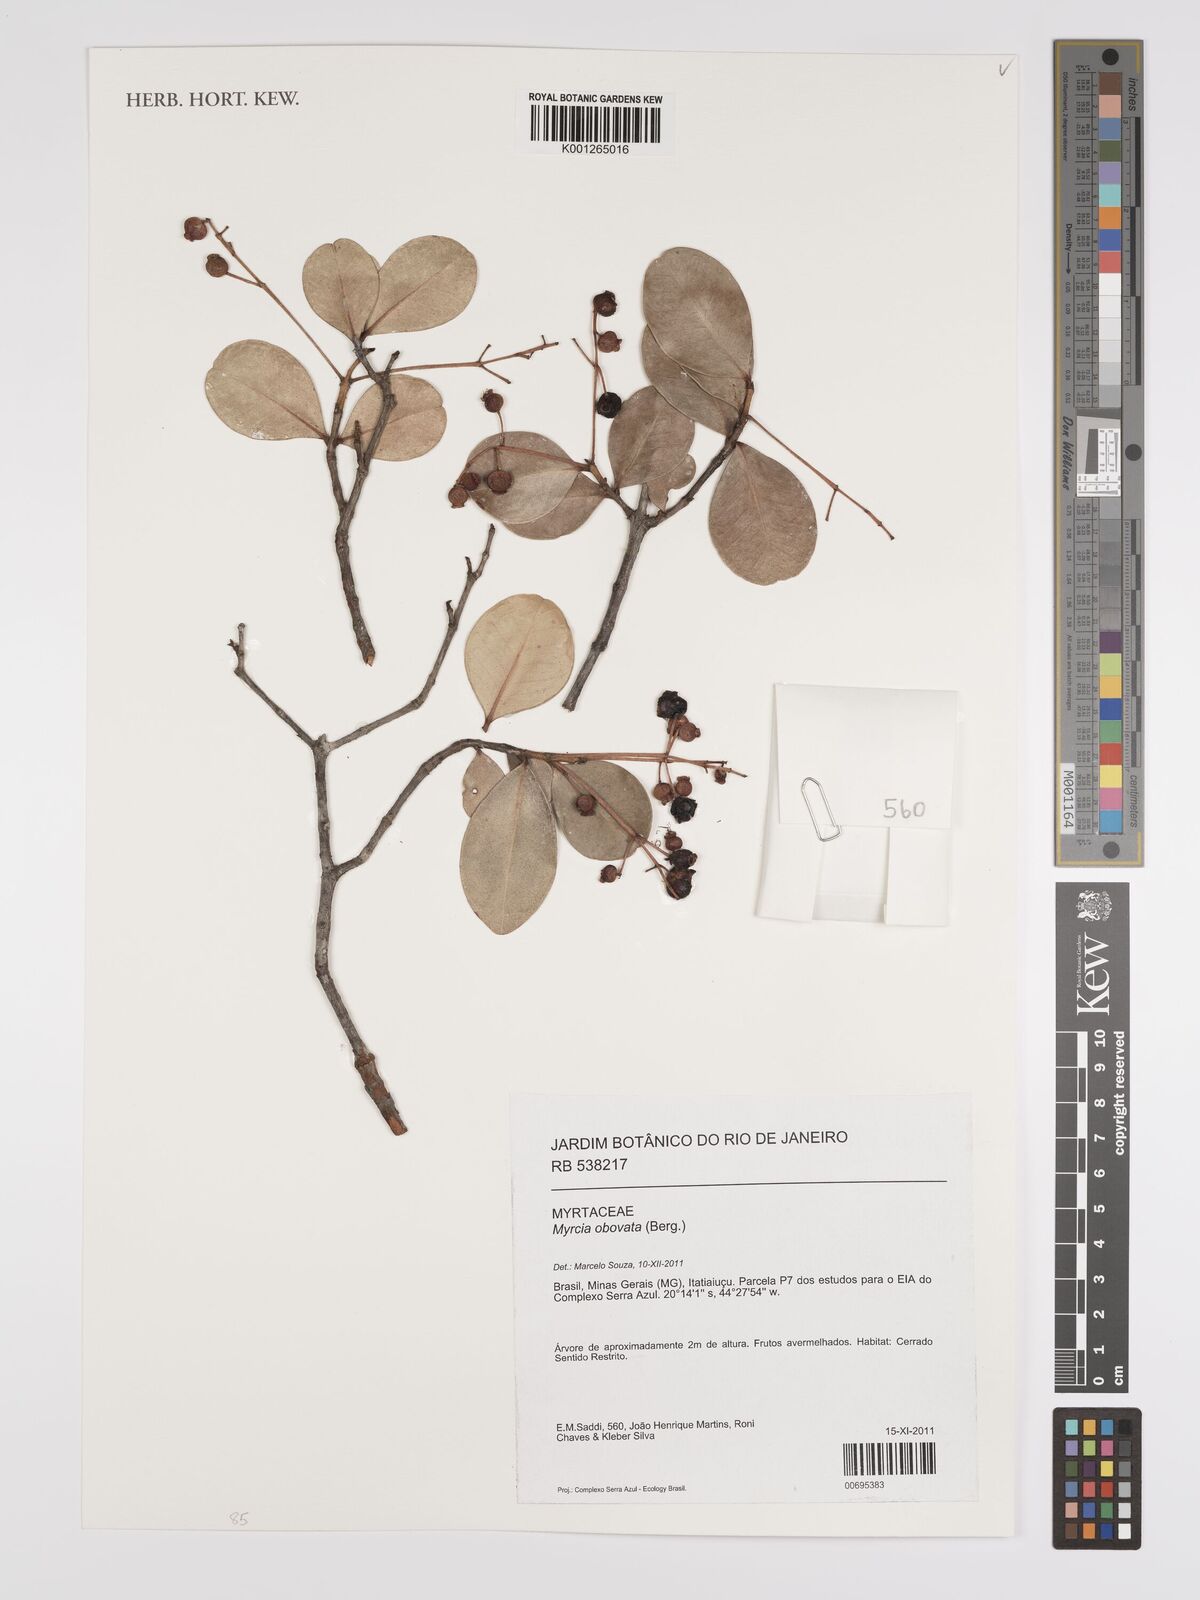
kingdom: Plantae
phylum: Tracheophyta
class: Magnoliopsida
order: Myrtales
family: Myrtaceae
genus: Myrcia
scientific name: Myrcia obovata
